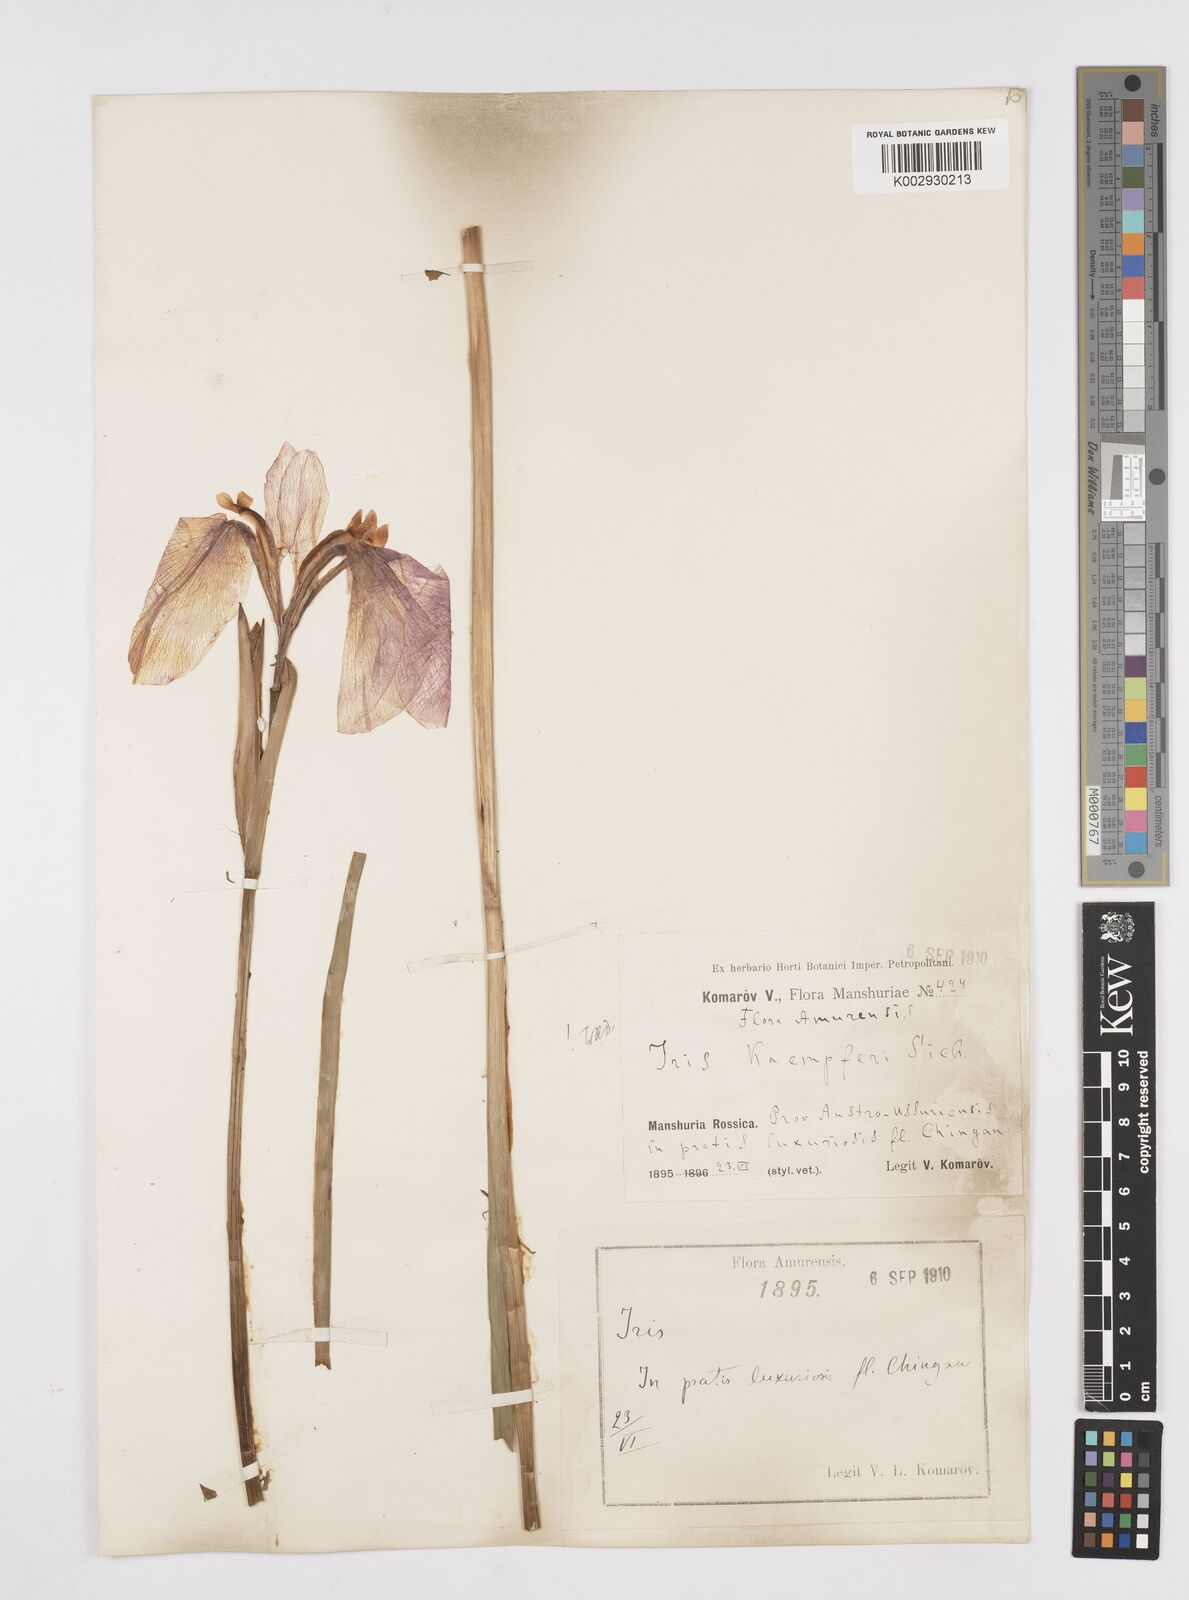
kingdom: Plantae
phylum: Tracheophyta
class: Liliopsida
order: Asparagales
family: Iridaceae
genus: Iris
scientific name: Iris ensata
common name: Beaked iris
